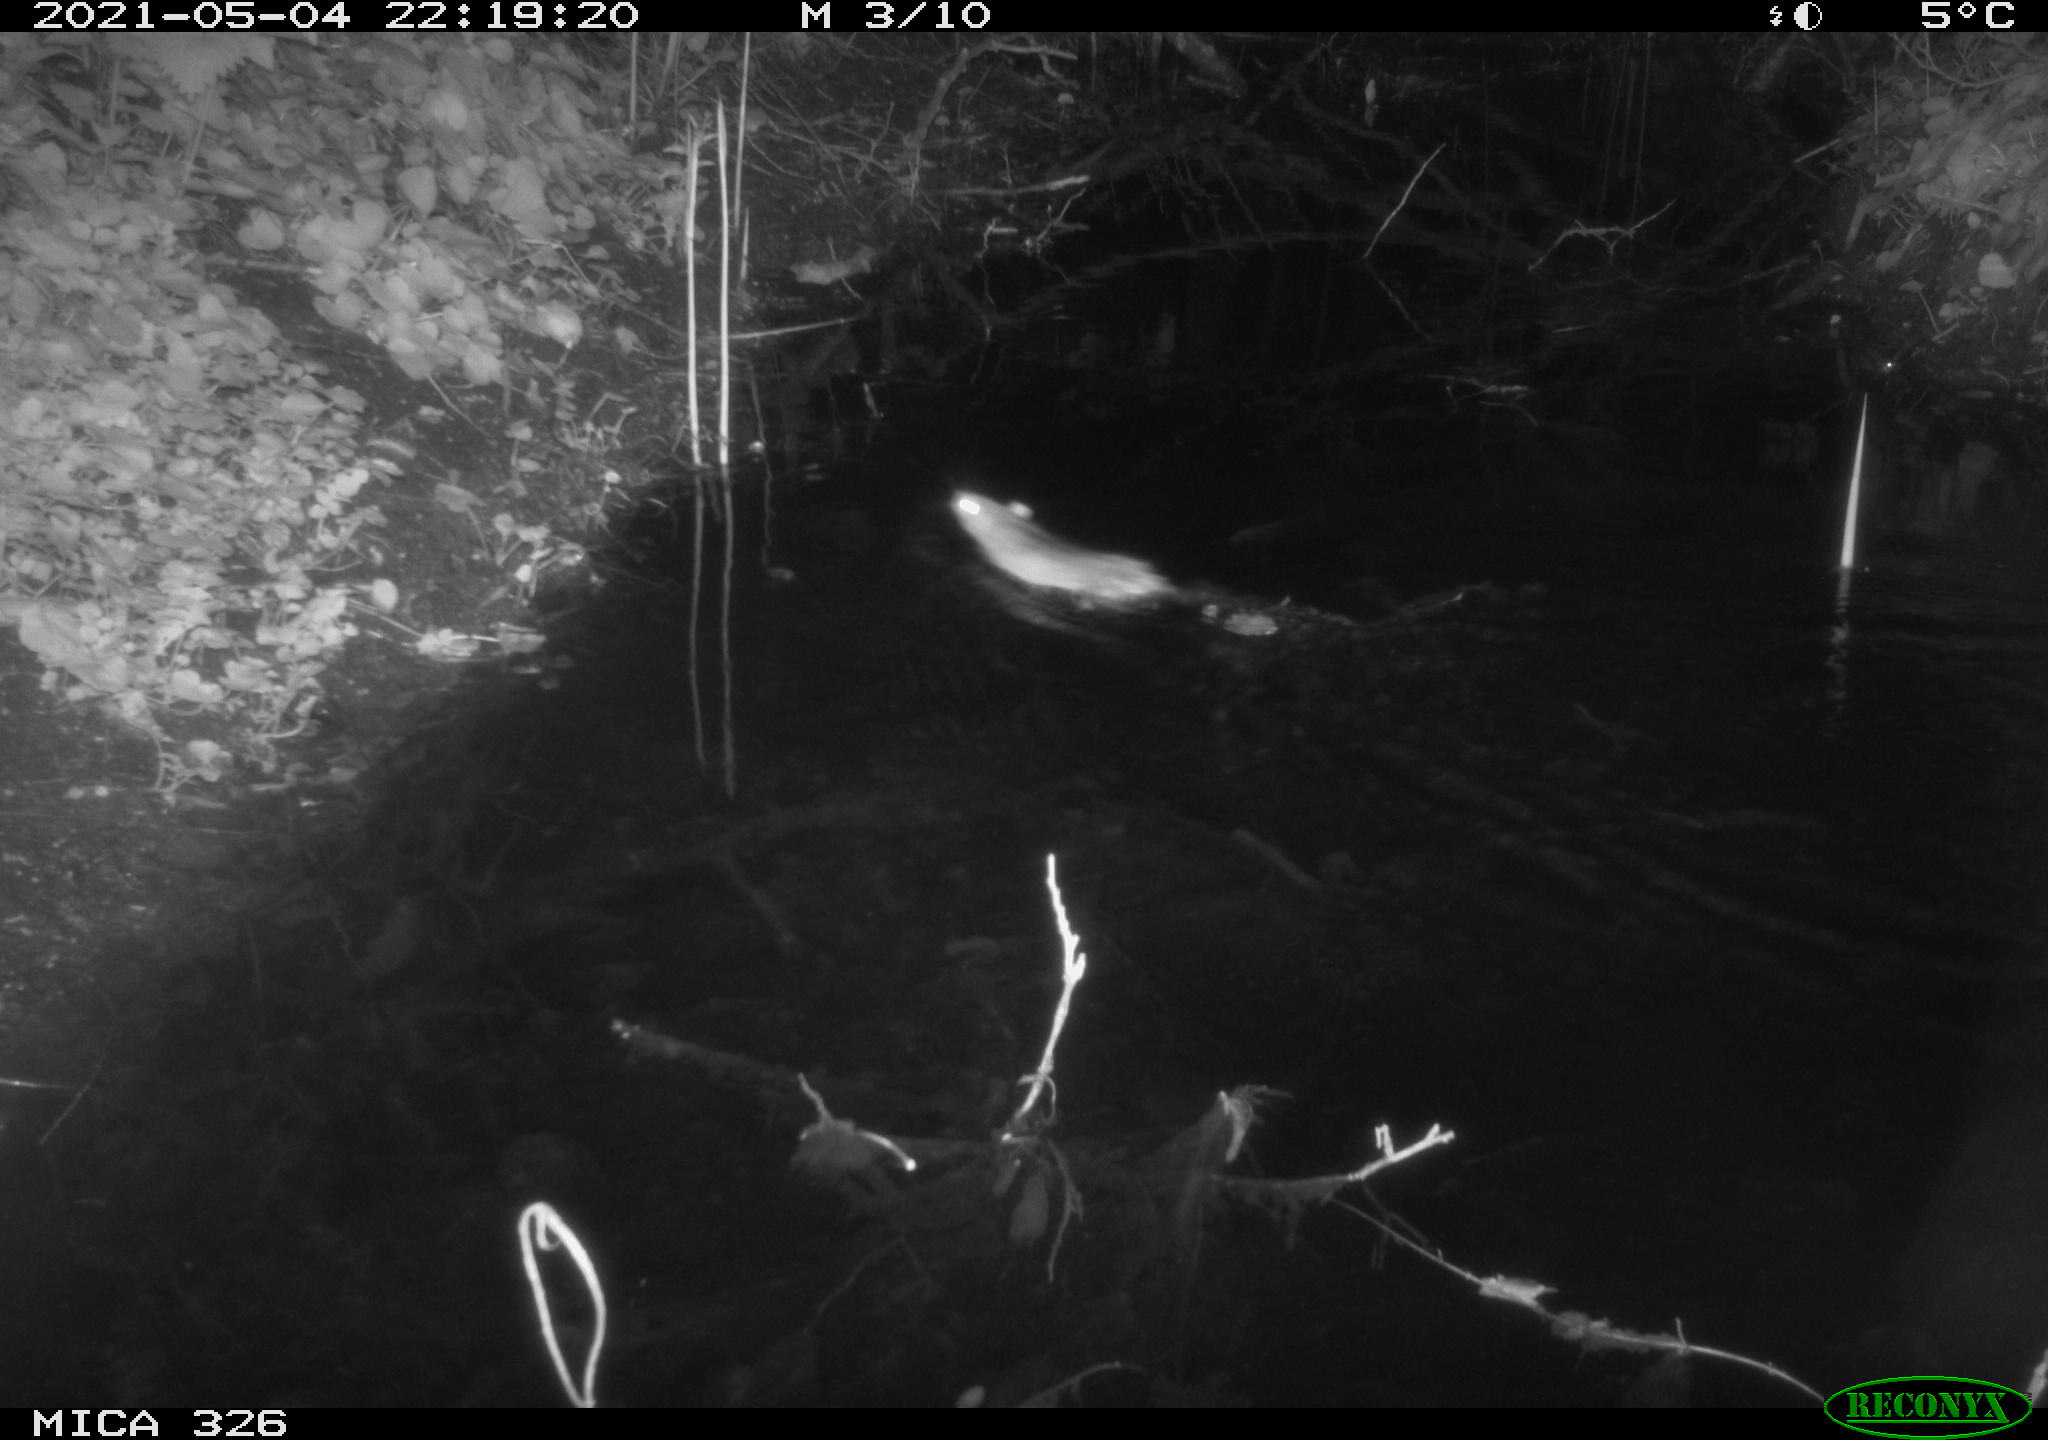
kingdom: Animalia
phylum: Chordata
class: Mammalia
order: Rodentia
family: Muridae
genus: Rattus
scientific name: Rattus norvegicus
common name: Brown rat
